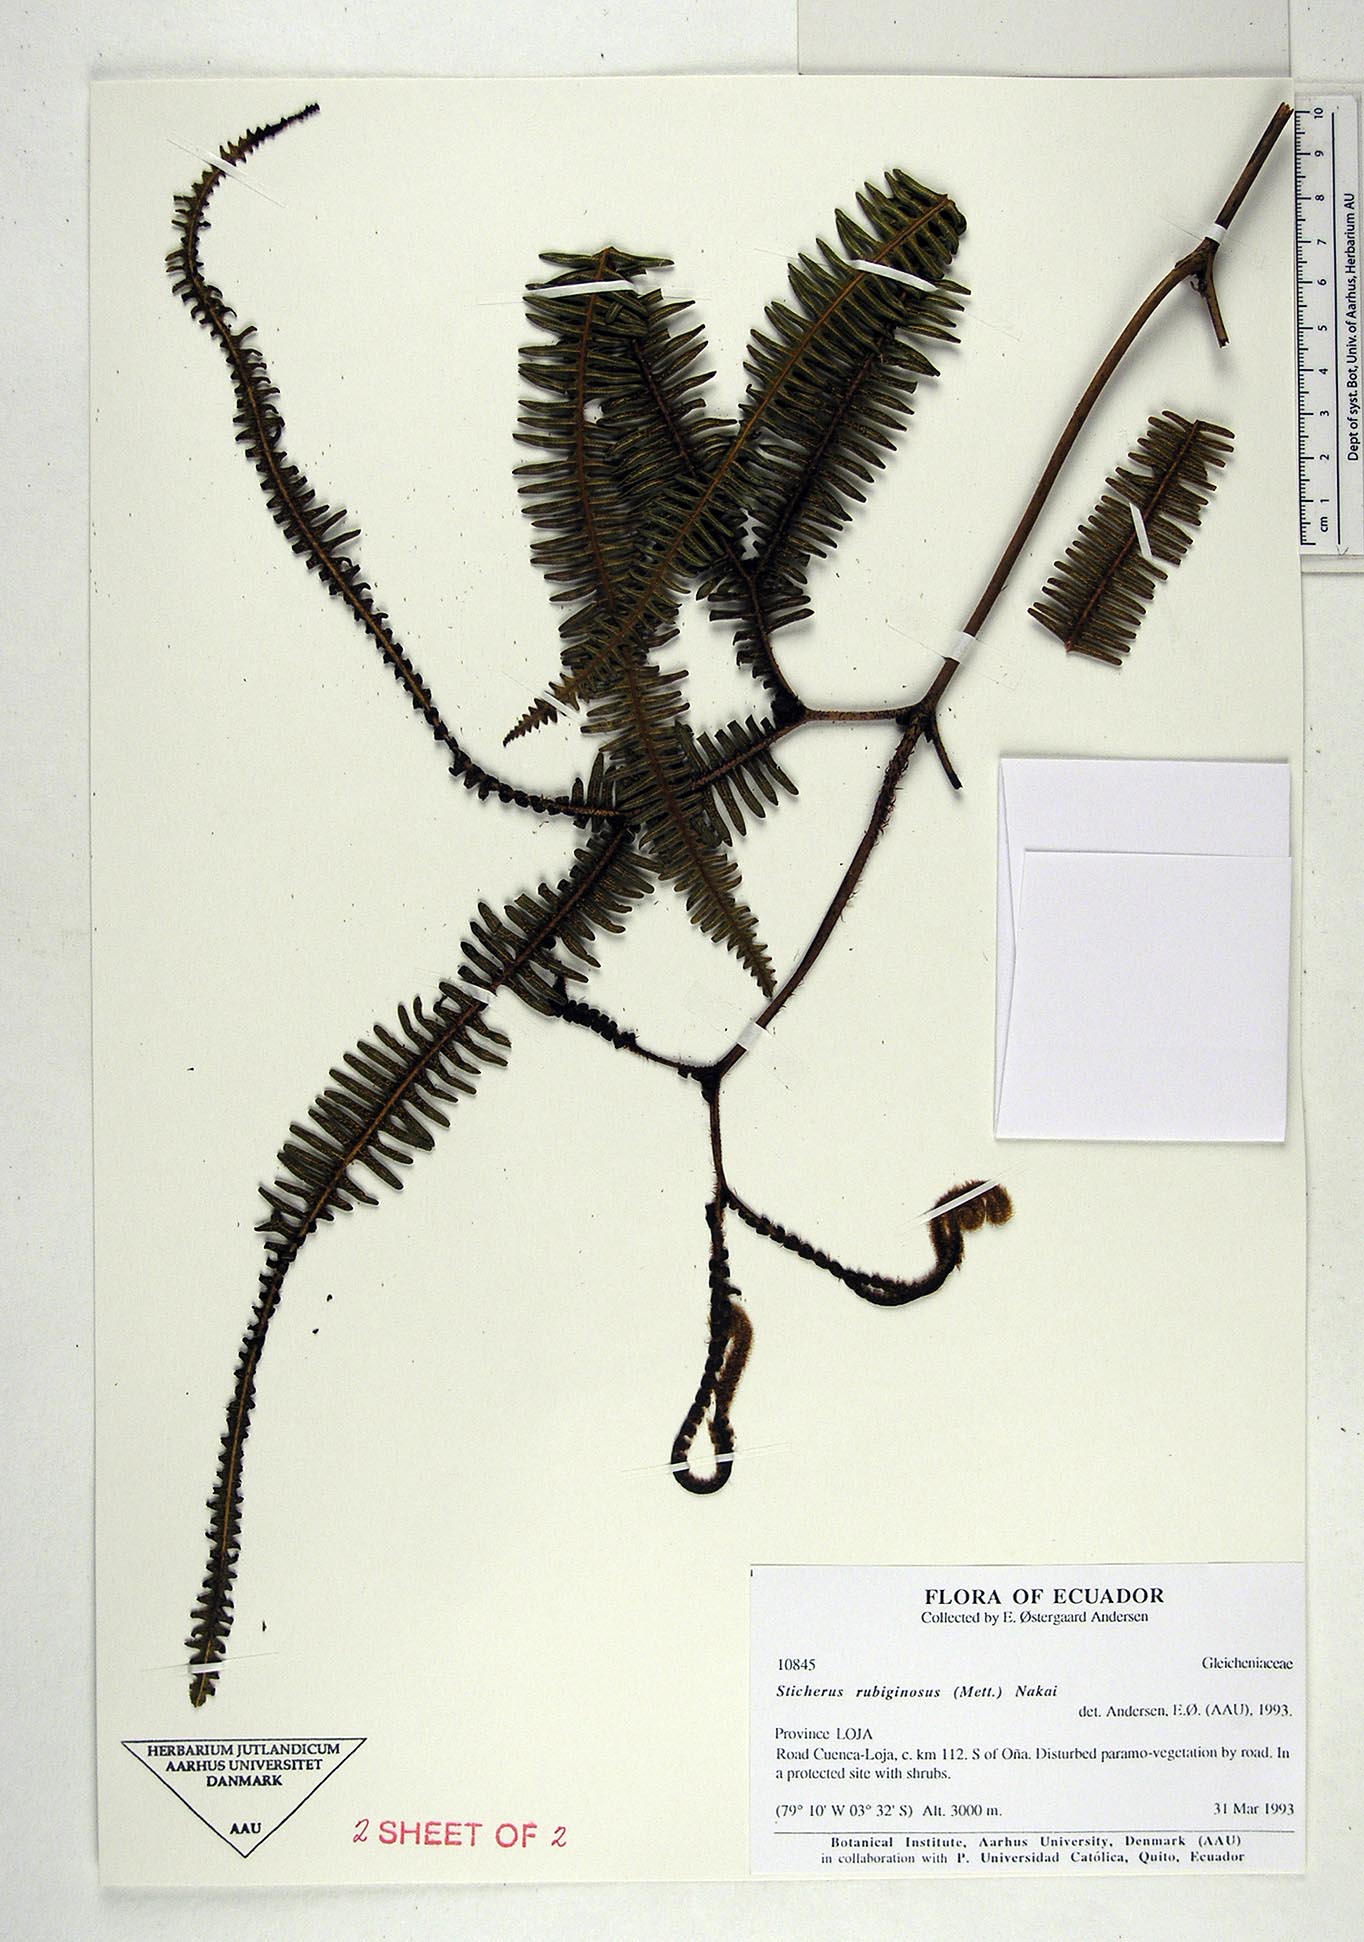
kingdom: Plantae
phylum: Tracheophyta
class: Polypodiopsida
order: Gleicheniales
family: Gleicheniaceae
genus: Sticherus
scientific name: Sticherus rubiginosus
